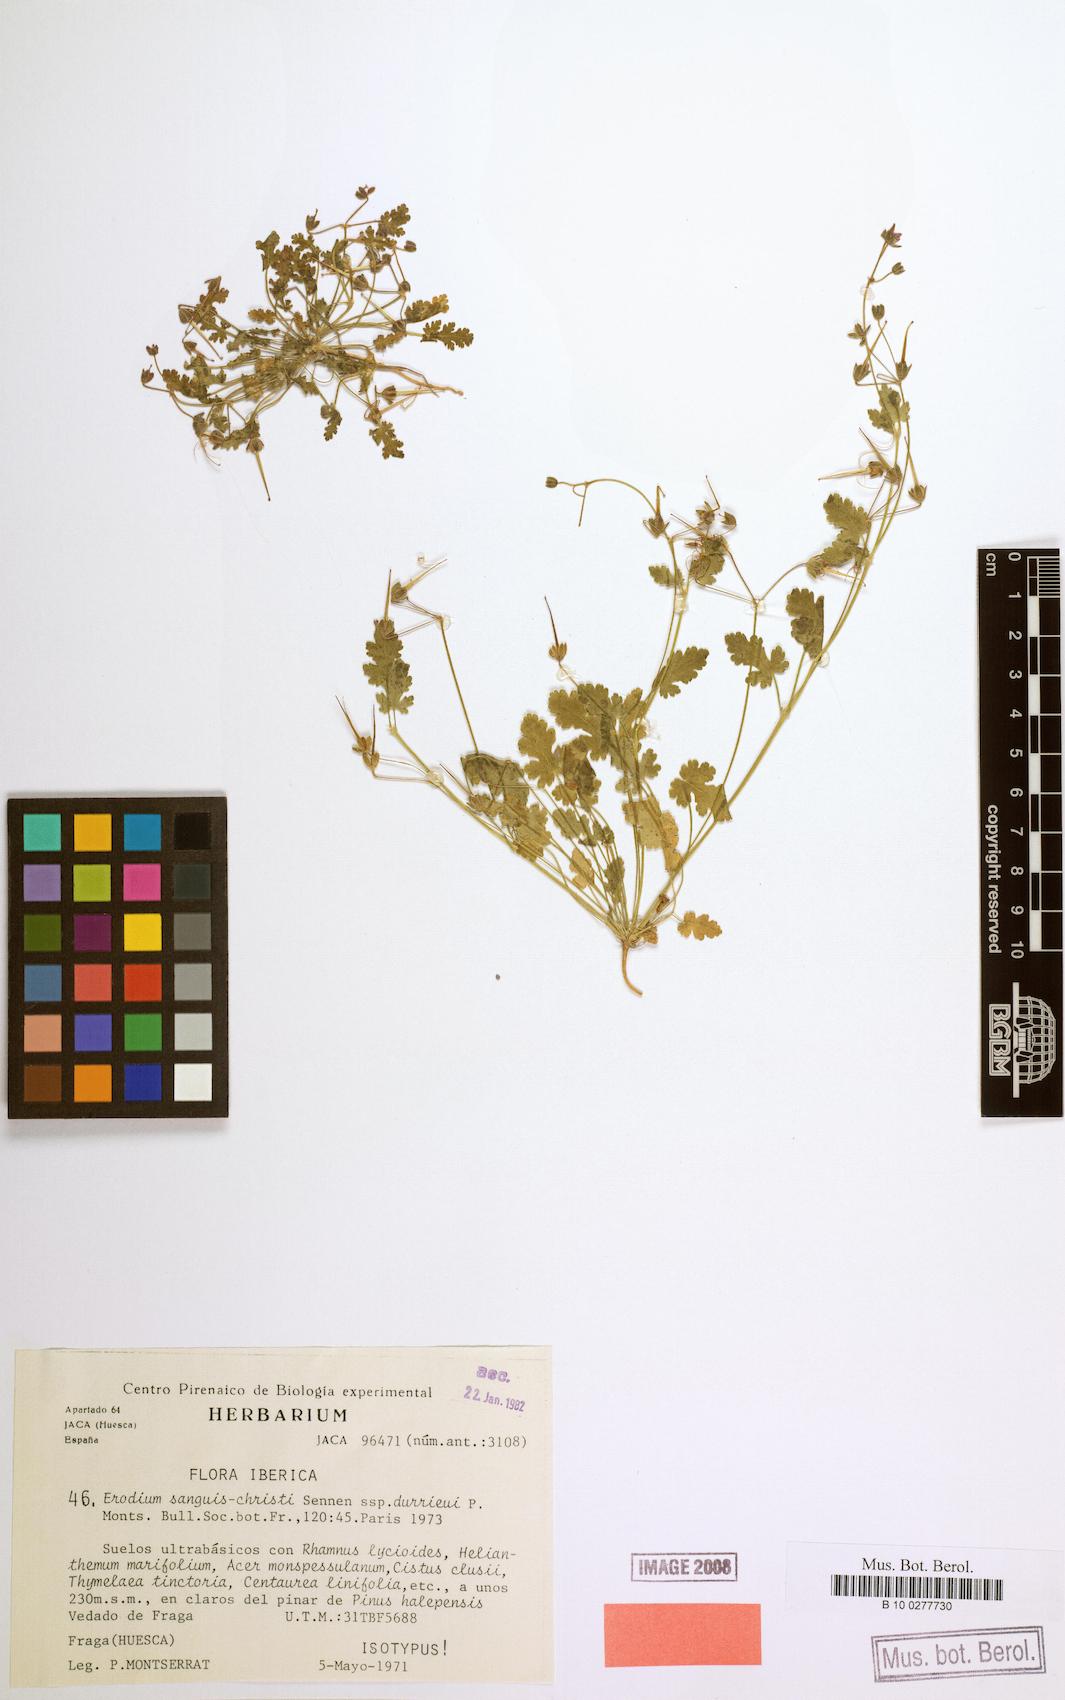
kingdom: Plantae
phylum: Tracheophyta
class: Magnoliopsida
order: Geraniales
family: Geraniaceae
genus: Erodium
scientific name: Erodium sanguis-christi
